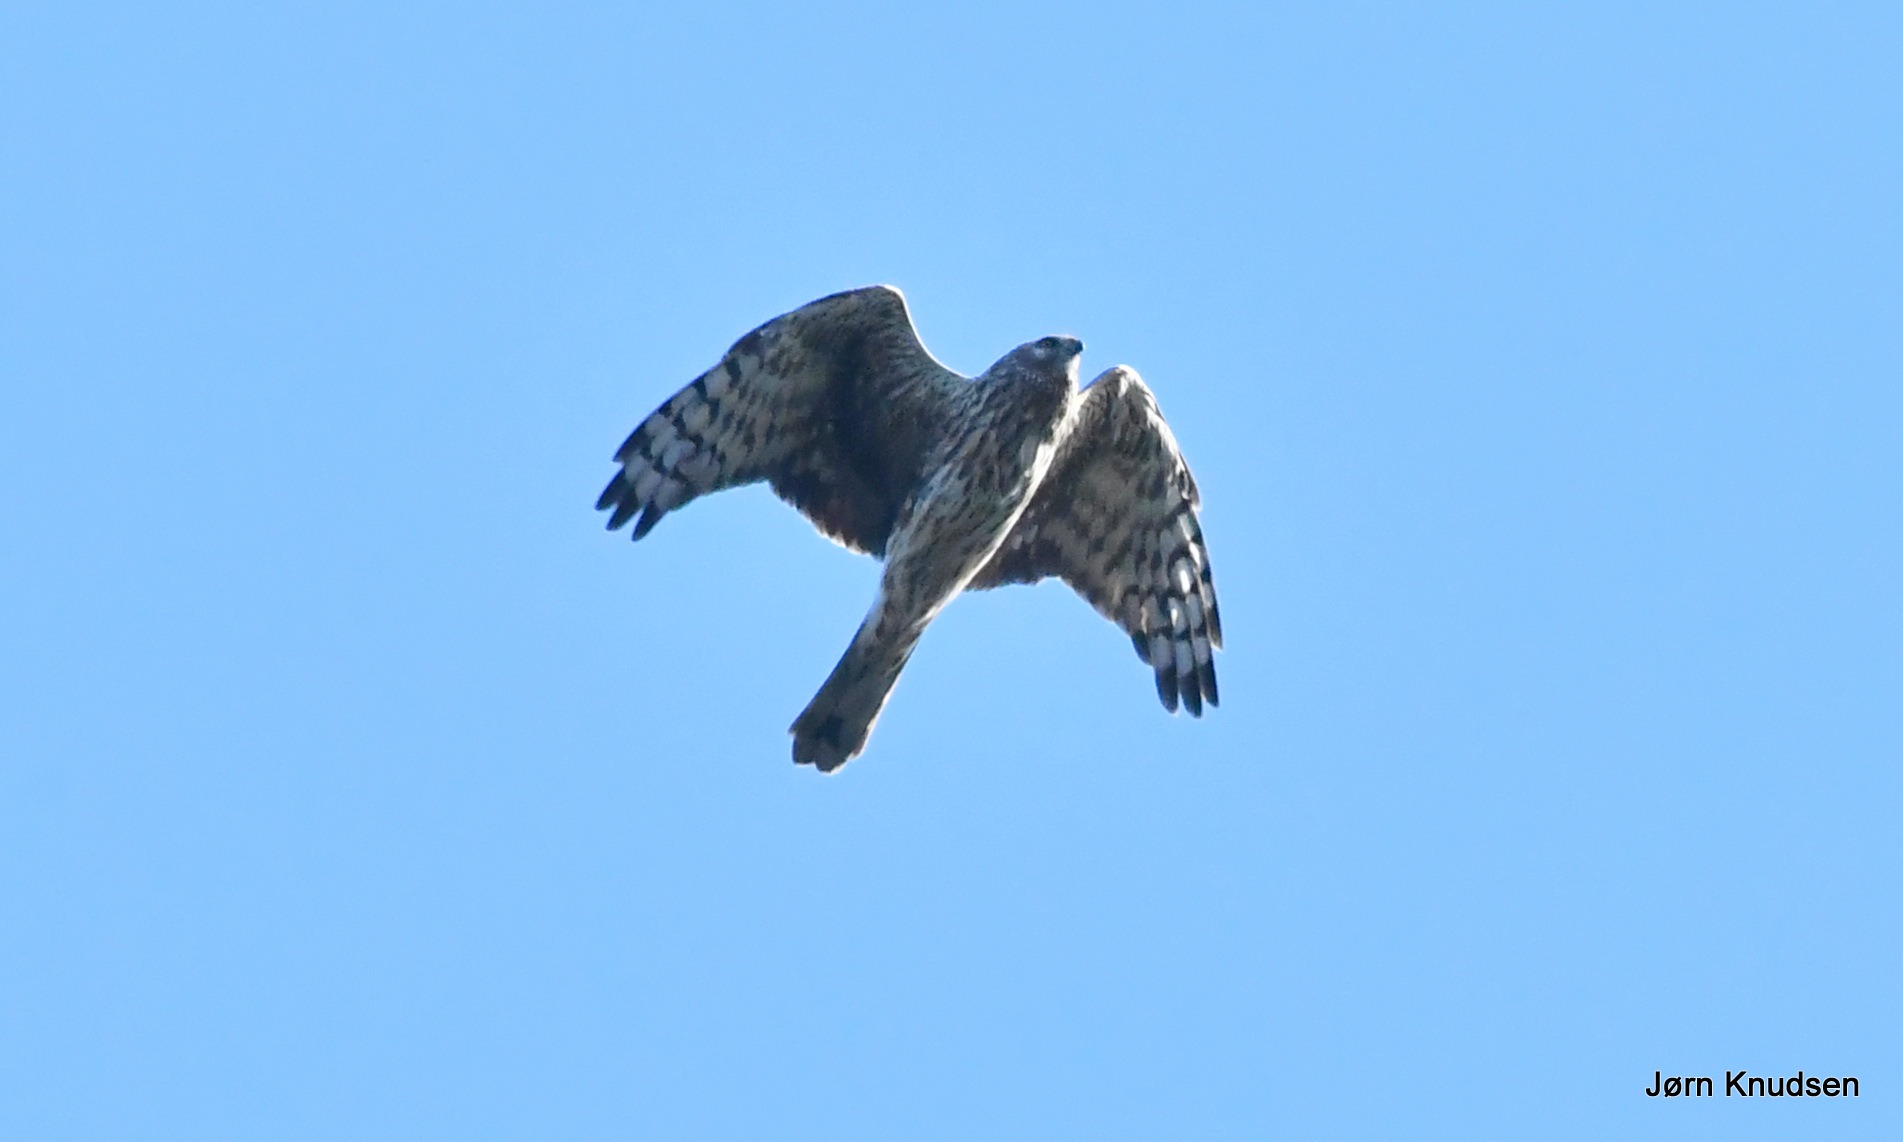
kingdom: Animalia
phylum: Chordata
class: Aves
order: Accipitriformes
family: Accipitridae
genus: Circus
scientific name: Circus cyaneus
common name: Blå kærhøg
